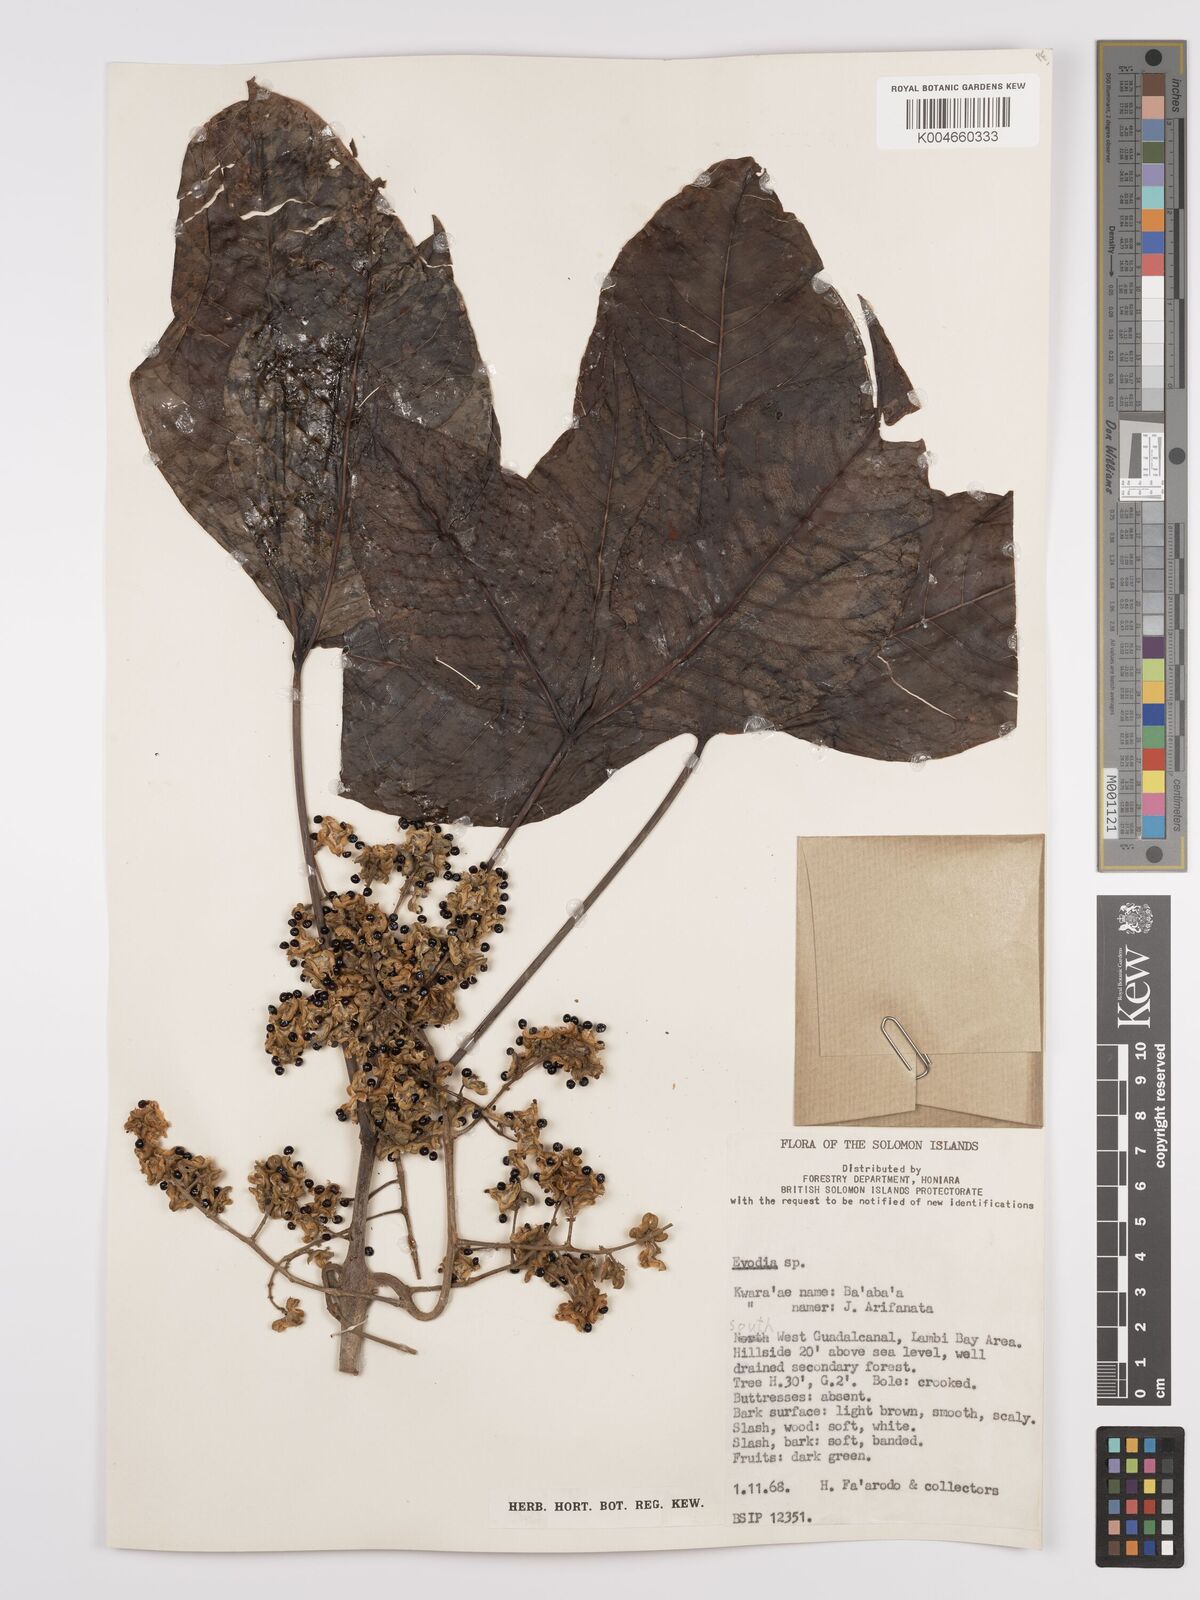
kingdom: Plantae
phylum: Tracheophyta
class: Magnoliopsida
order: Sapindales
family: Rutaceae
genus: Euodia
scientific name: Euodia
